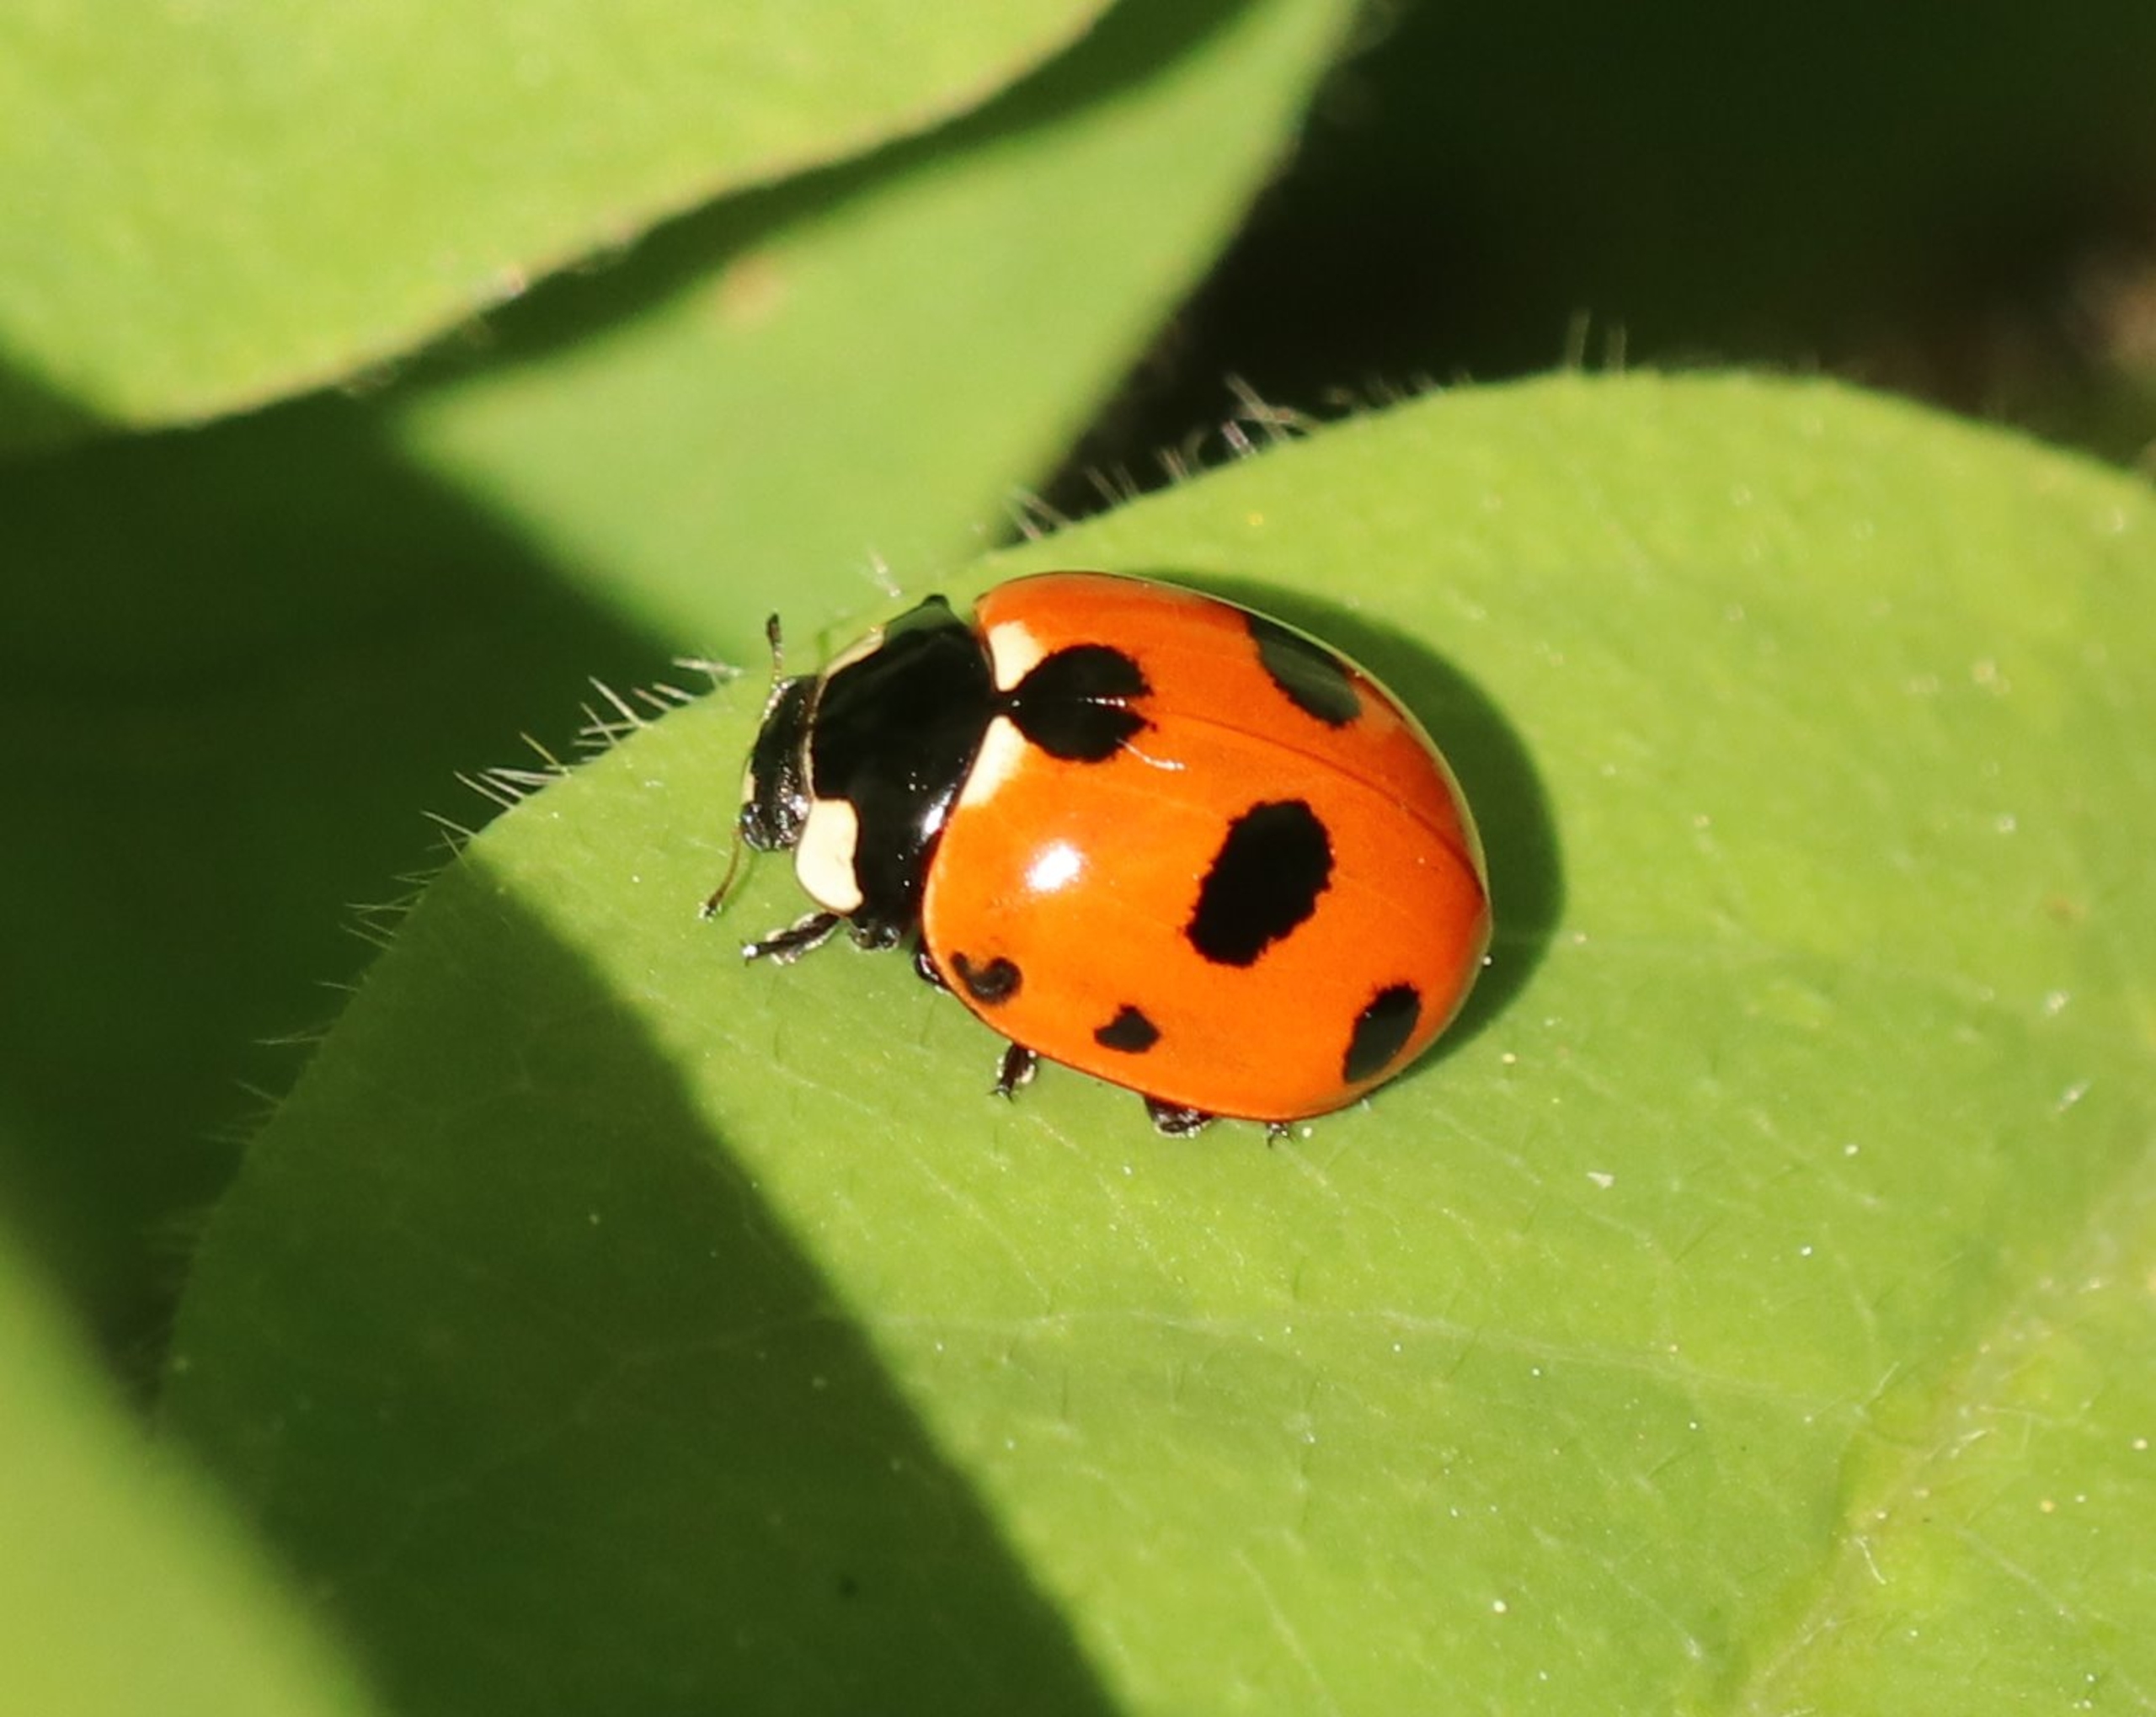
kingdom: Animalia
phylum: Arthropoda
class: Insecta
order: Coleoptera
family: Coccinellidae
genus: Coccinella
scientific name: Coccinella magnifica
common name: Myremariehøne
